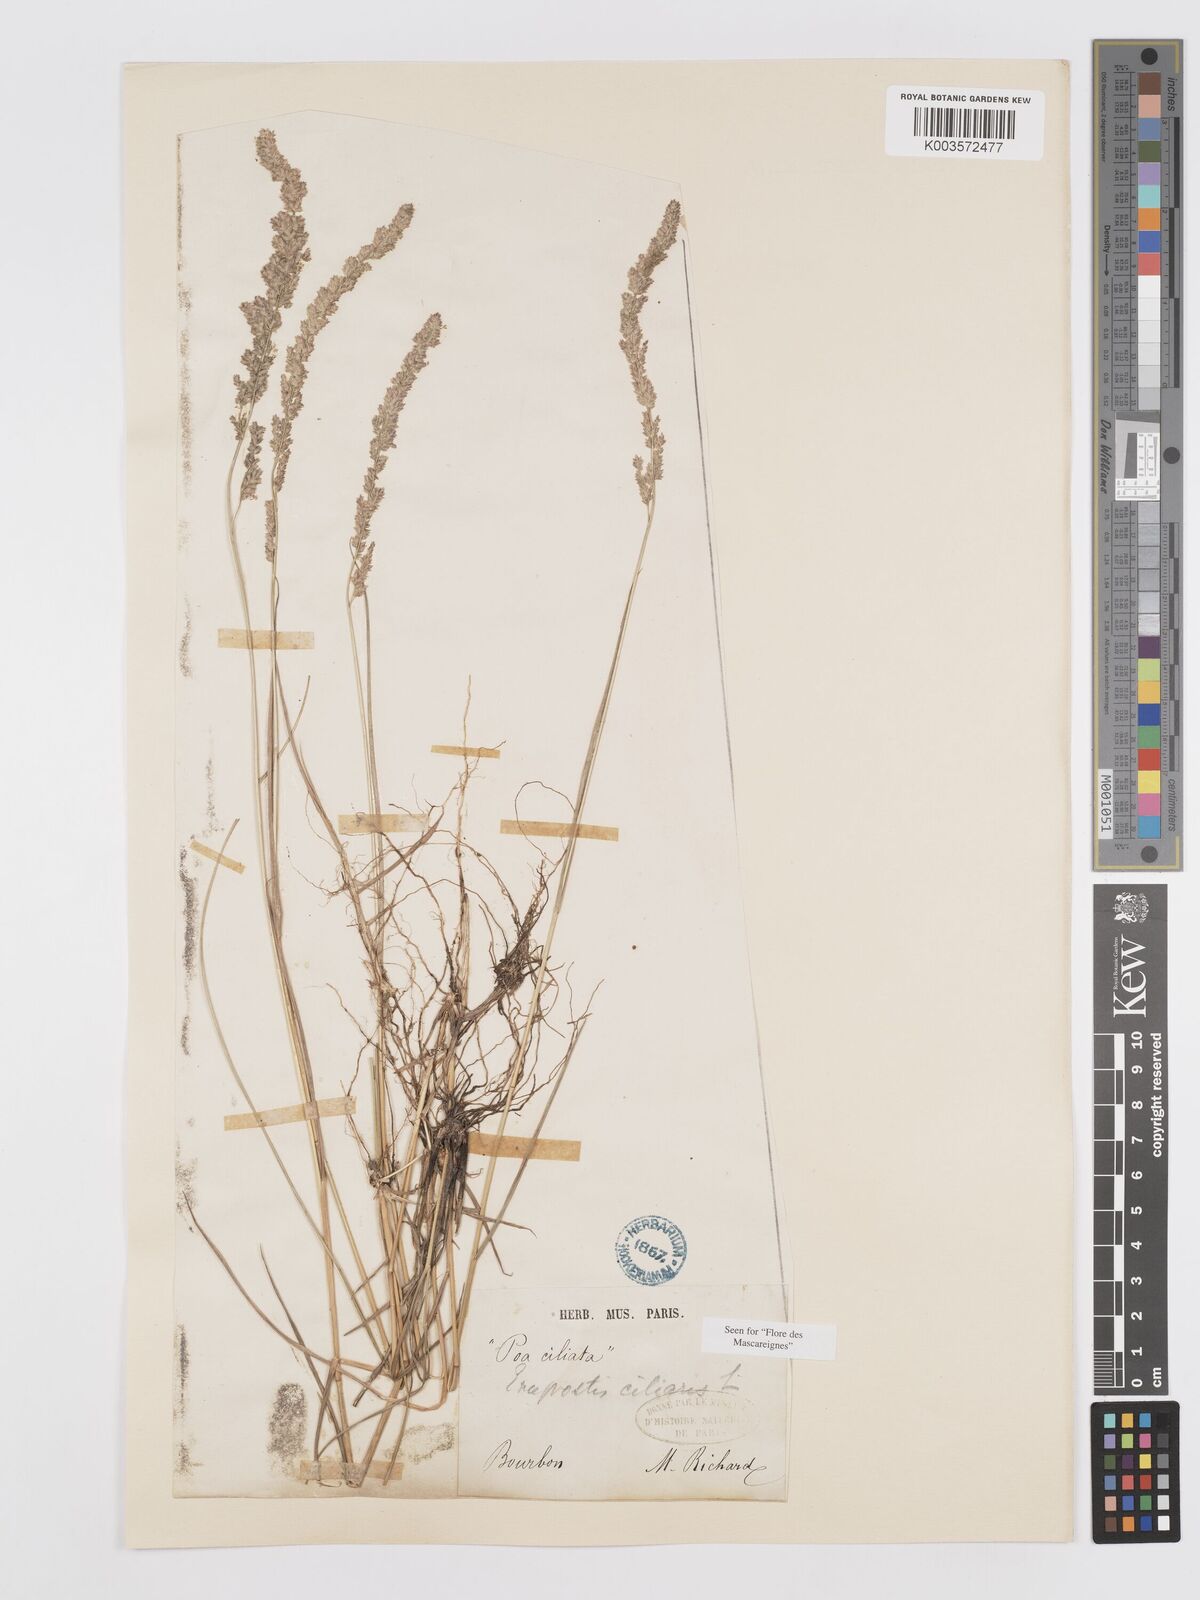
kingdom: Plantae
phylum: Tracheophyta
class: Liliopsida
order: Poales
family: Poaceae
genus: Eragrostis
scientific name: Eragrostis ciliaris
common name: Gophertail lovegrass
